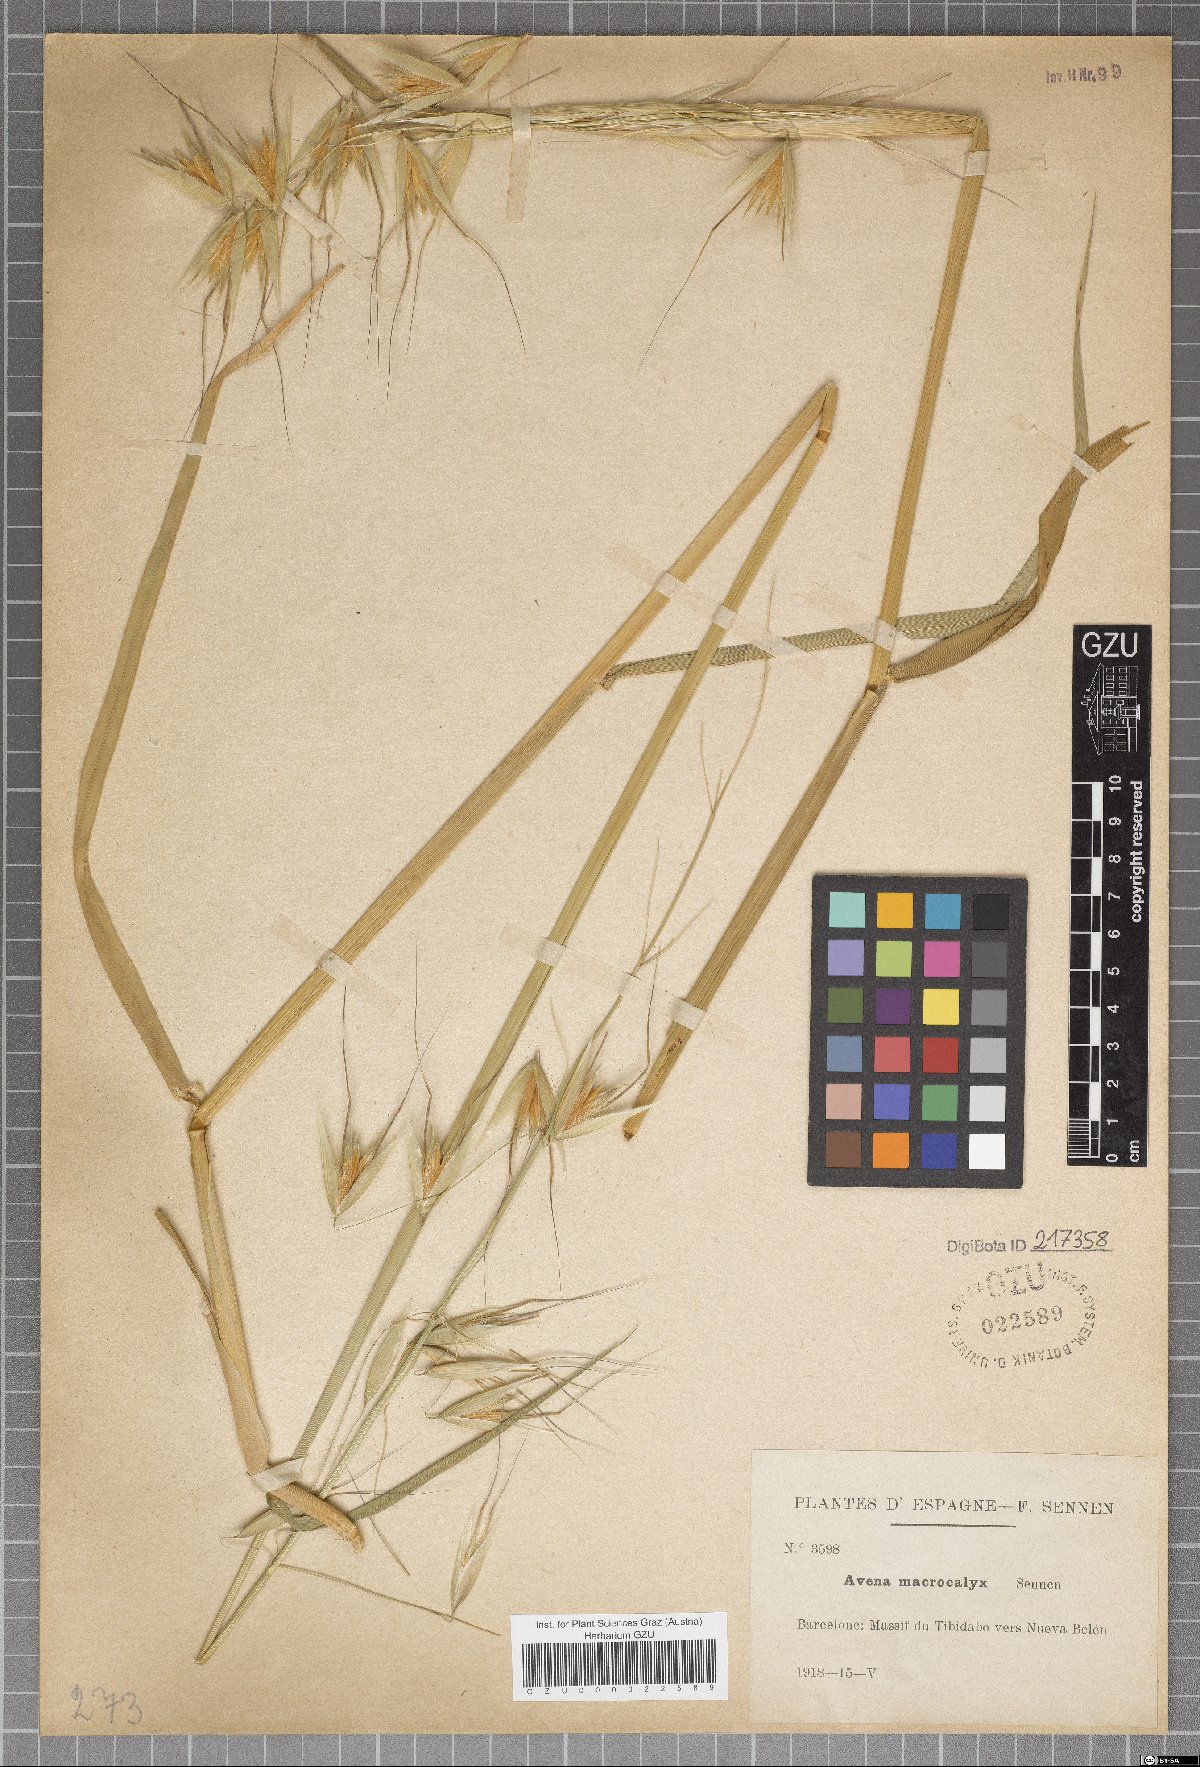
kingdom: Plantae
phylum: Tracheophyta
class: Liliopsida
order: Poales
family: Poaceae
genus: Avena
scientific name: Avena sterilis
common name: Animated oat
